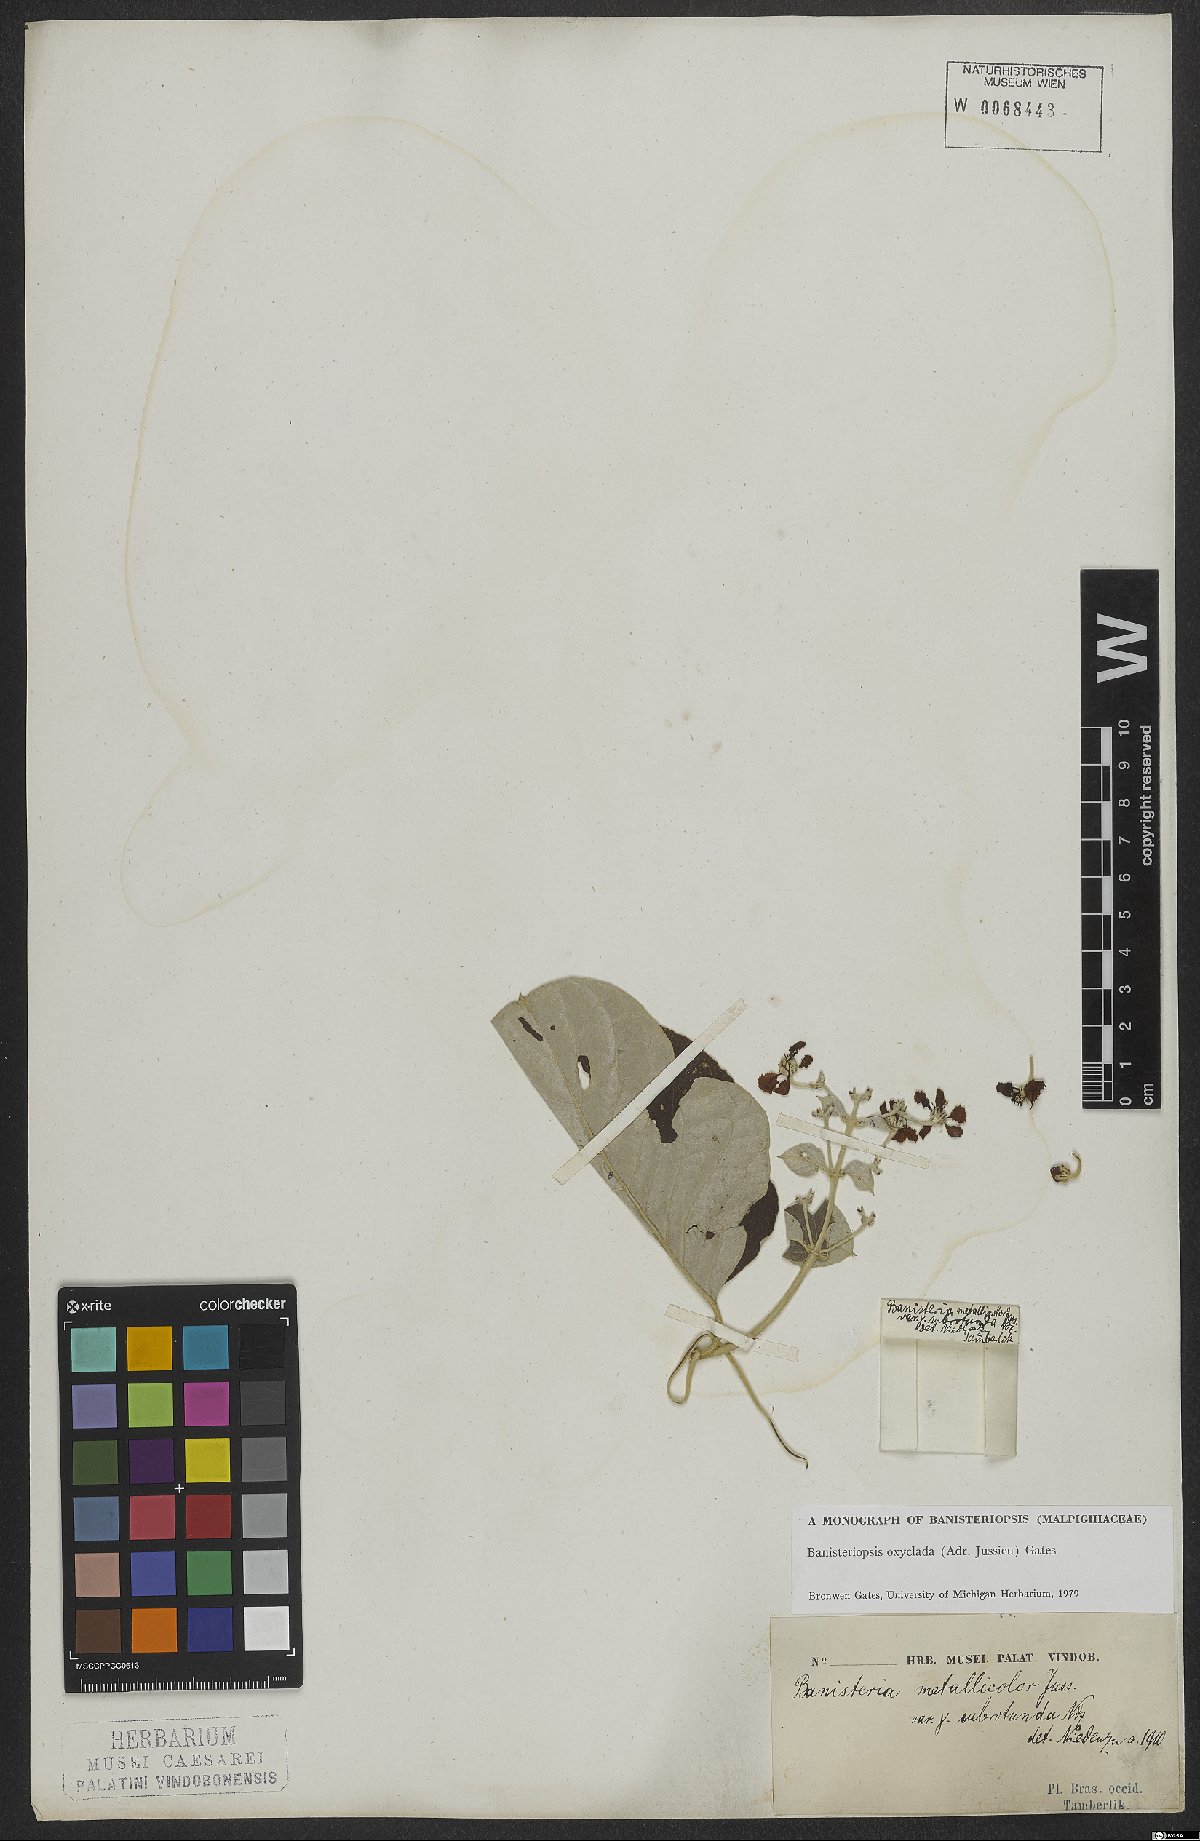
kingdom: Plantae
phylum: Tracheophyta
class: Magnoliopsida
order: Malpighiales
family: Malpighiaceae
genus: Banisteriopsis
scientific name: Banisteriopsis oxyclada
